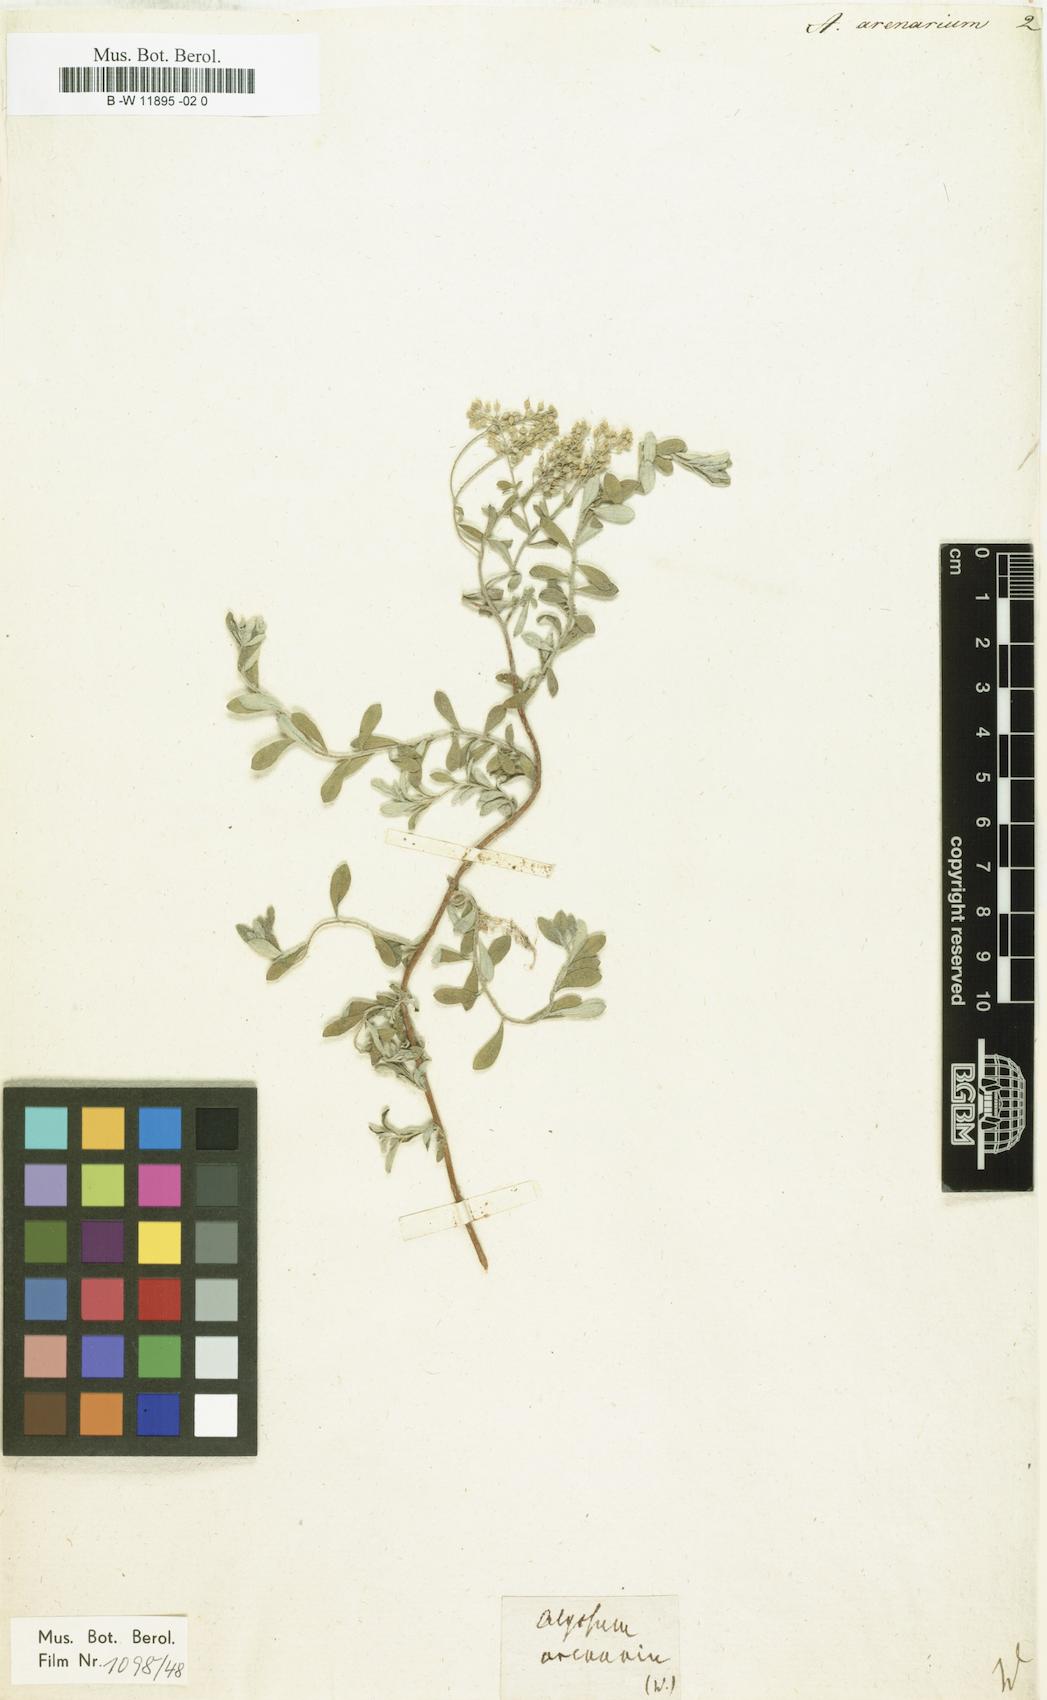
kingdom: Plantae
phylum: Tracheophyta
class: Magnoliopsida
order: Brassicales
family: Brassicaceae
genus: Alyssum
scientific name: Alyssum gmelinii
